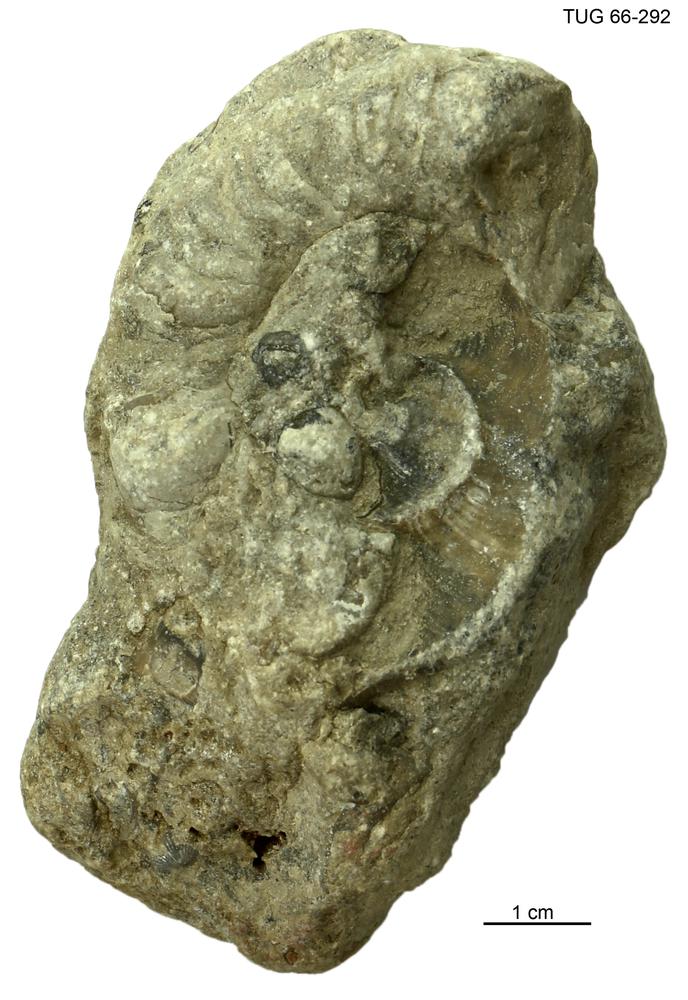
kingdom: Animalia
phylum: Mollusca
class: Cephalopoda
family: Trocholitidae
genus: Discoceras
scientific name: Discoceras
